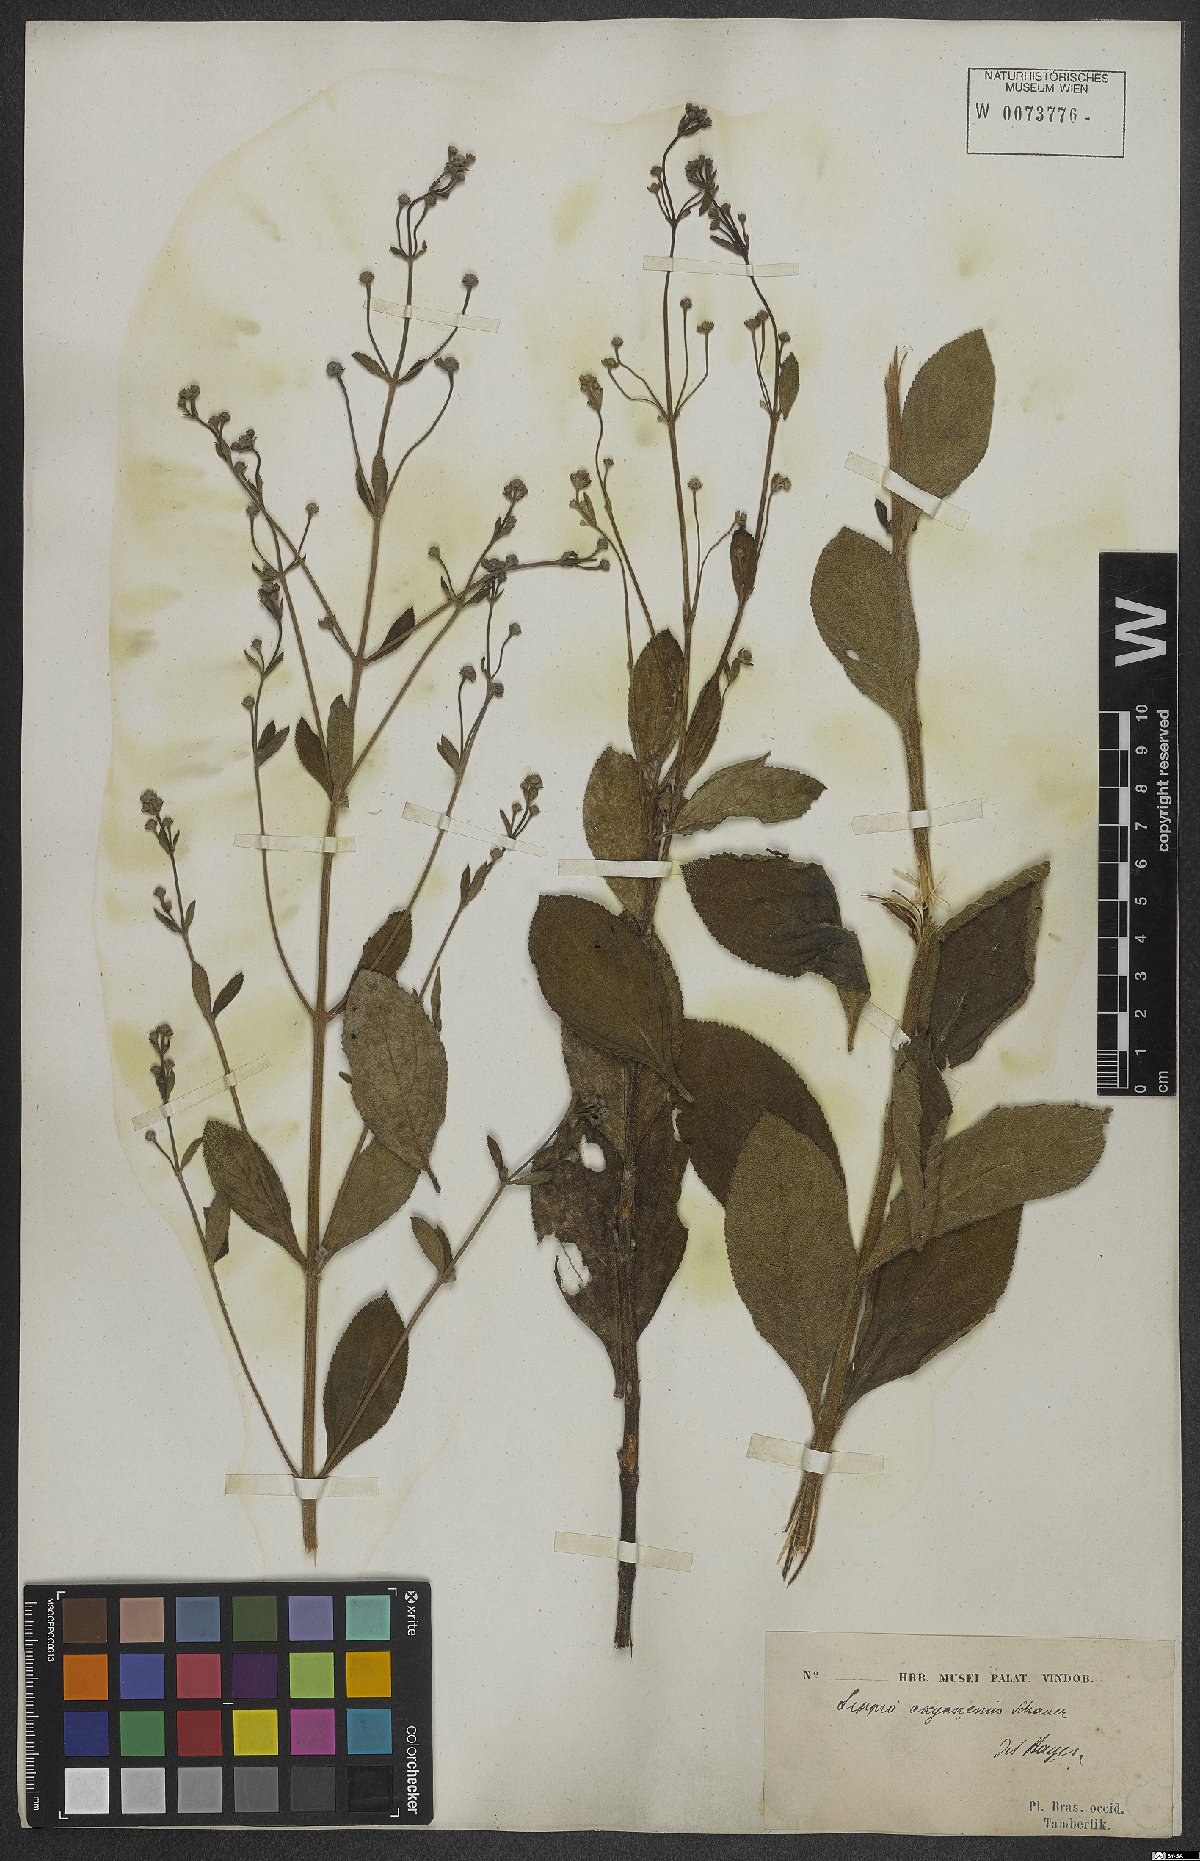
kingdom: Plantae
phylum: Tracheophyta
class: Magnoliopsida
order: Lamiales
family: Verbenaceae
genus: Lippia
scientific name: Lippia oxycnemis
